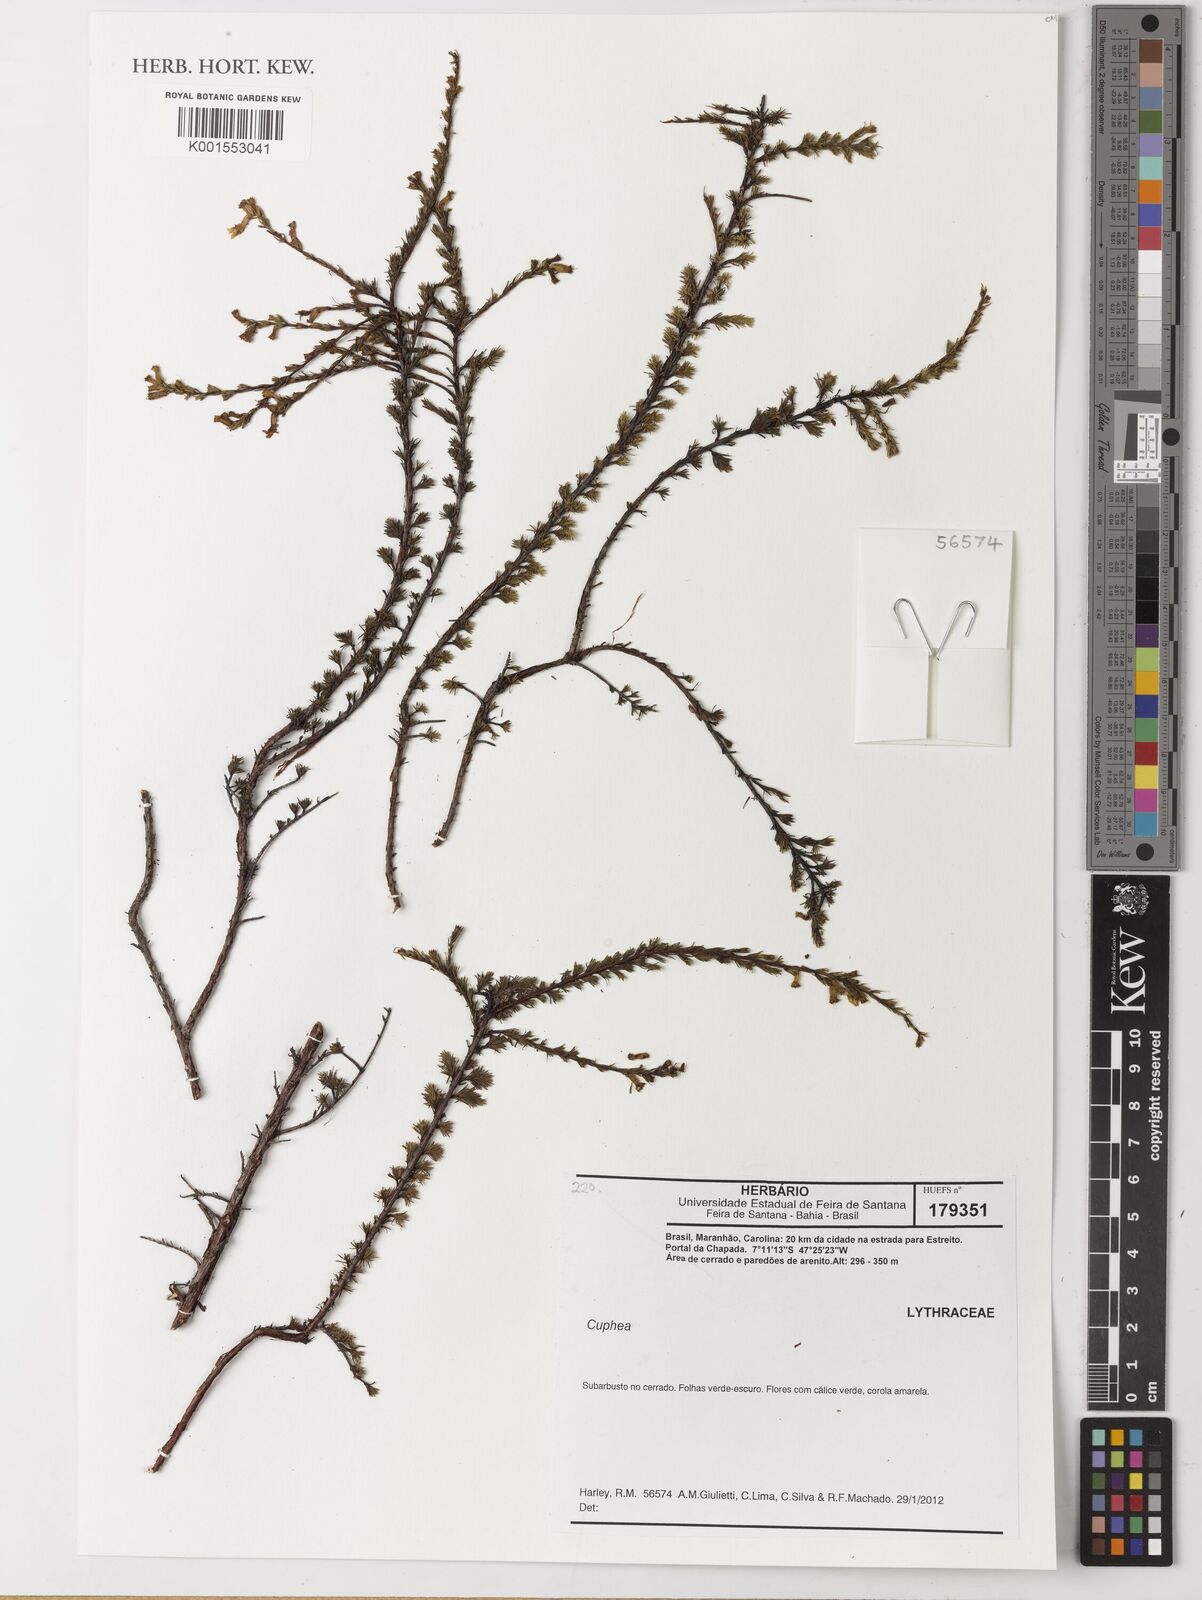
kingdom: Plantae
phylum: Tracheophyta
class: Magnoliopsida
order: Myrtales
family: Lythraceae
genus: Cuphea
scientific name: Cuphea
